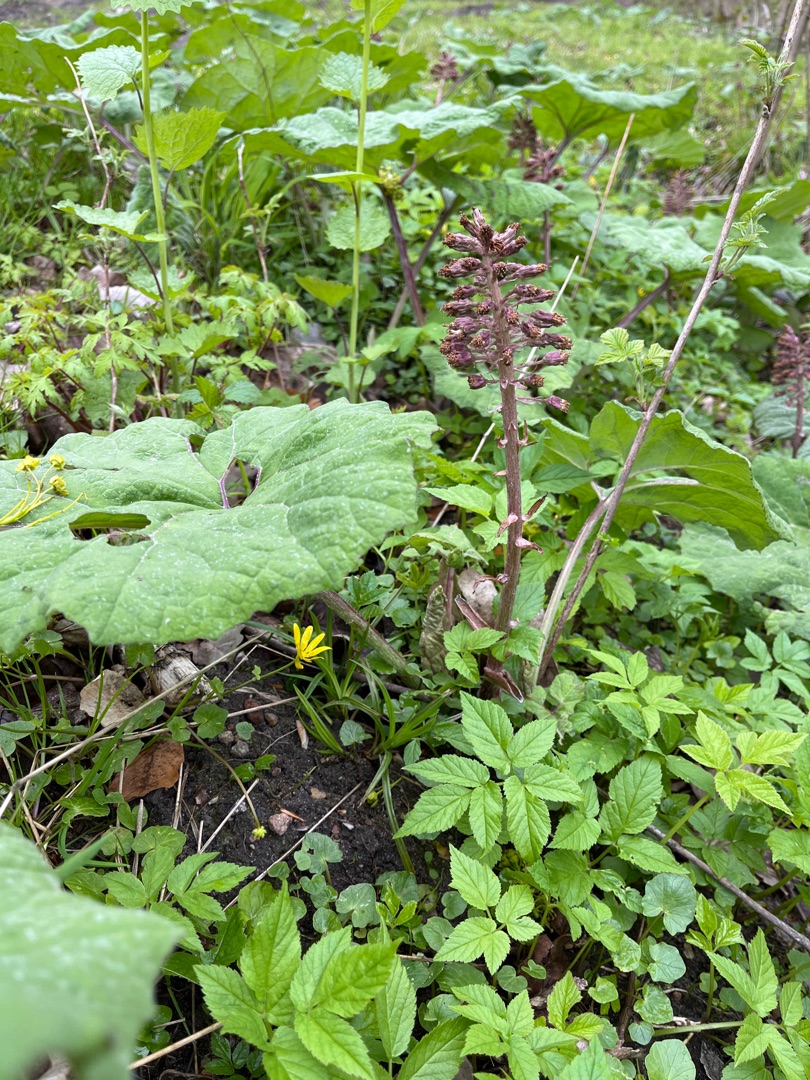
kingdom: Plantae
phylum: Tracheophyta
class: Magnoliopsida
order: Asterales
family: Asteraceae
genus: Petasites
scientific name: Petasites hybridus
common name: Rød hestehov
